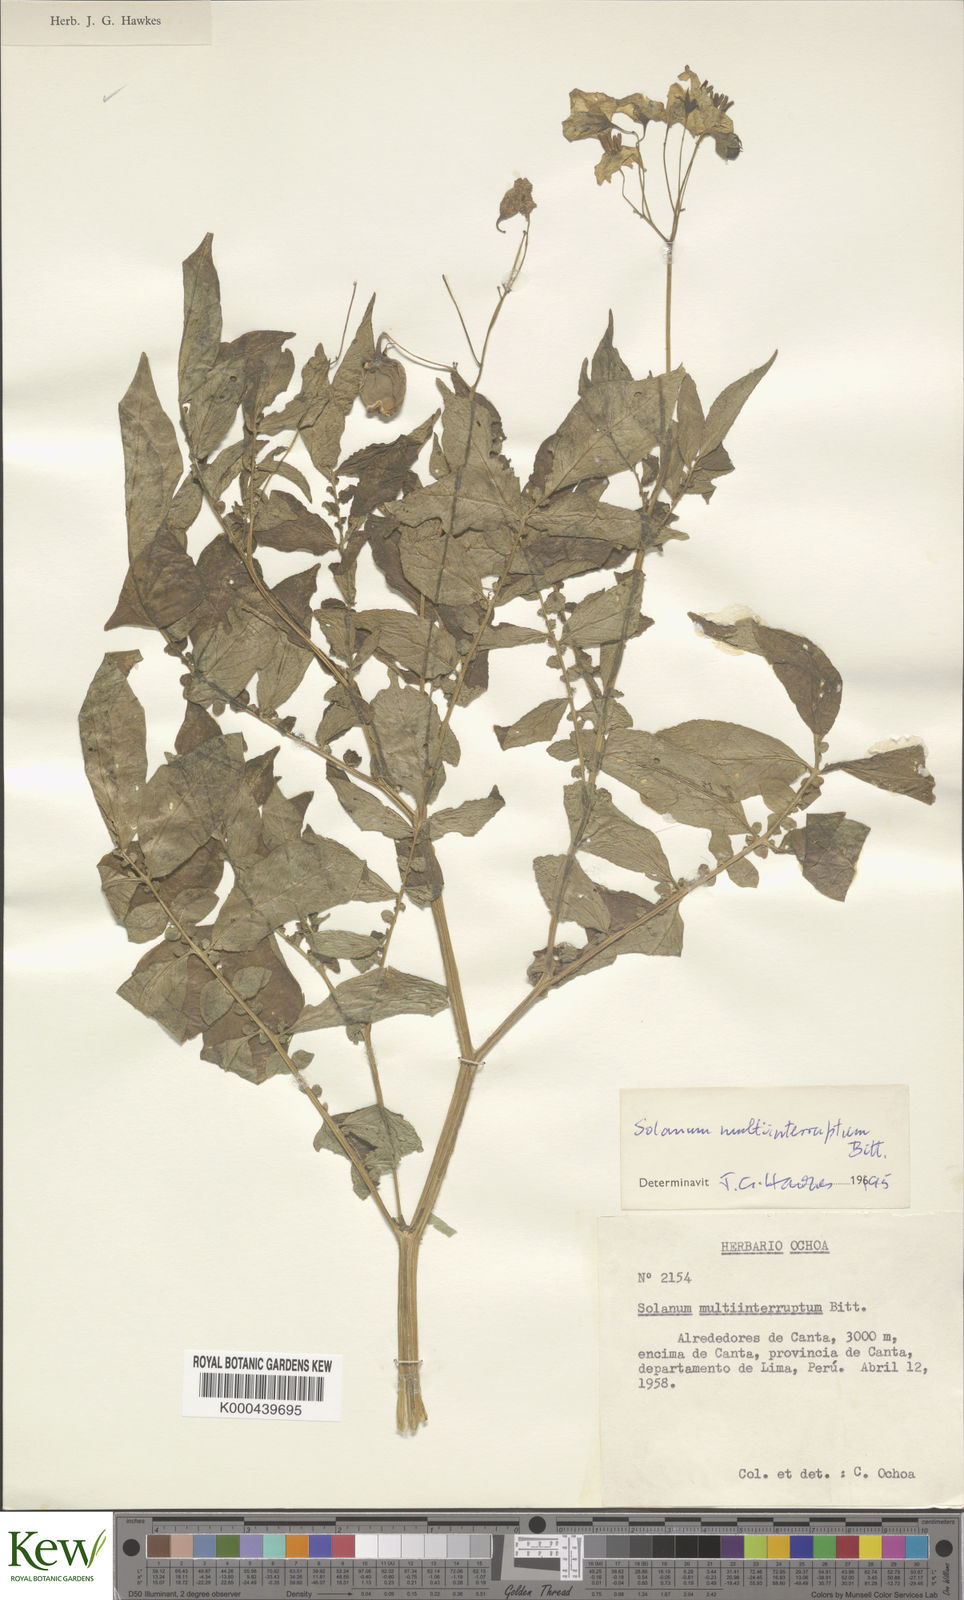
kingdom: Plantae
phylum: Tracheophyta
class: Magnoliopsida
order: Solanales
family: Solanaceae
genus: Solanum
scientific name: Solanum multiinterruptum
